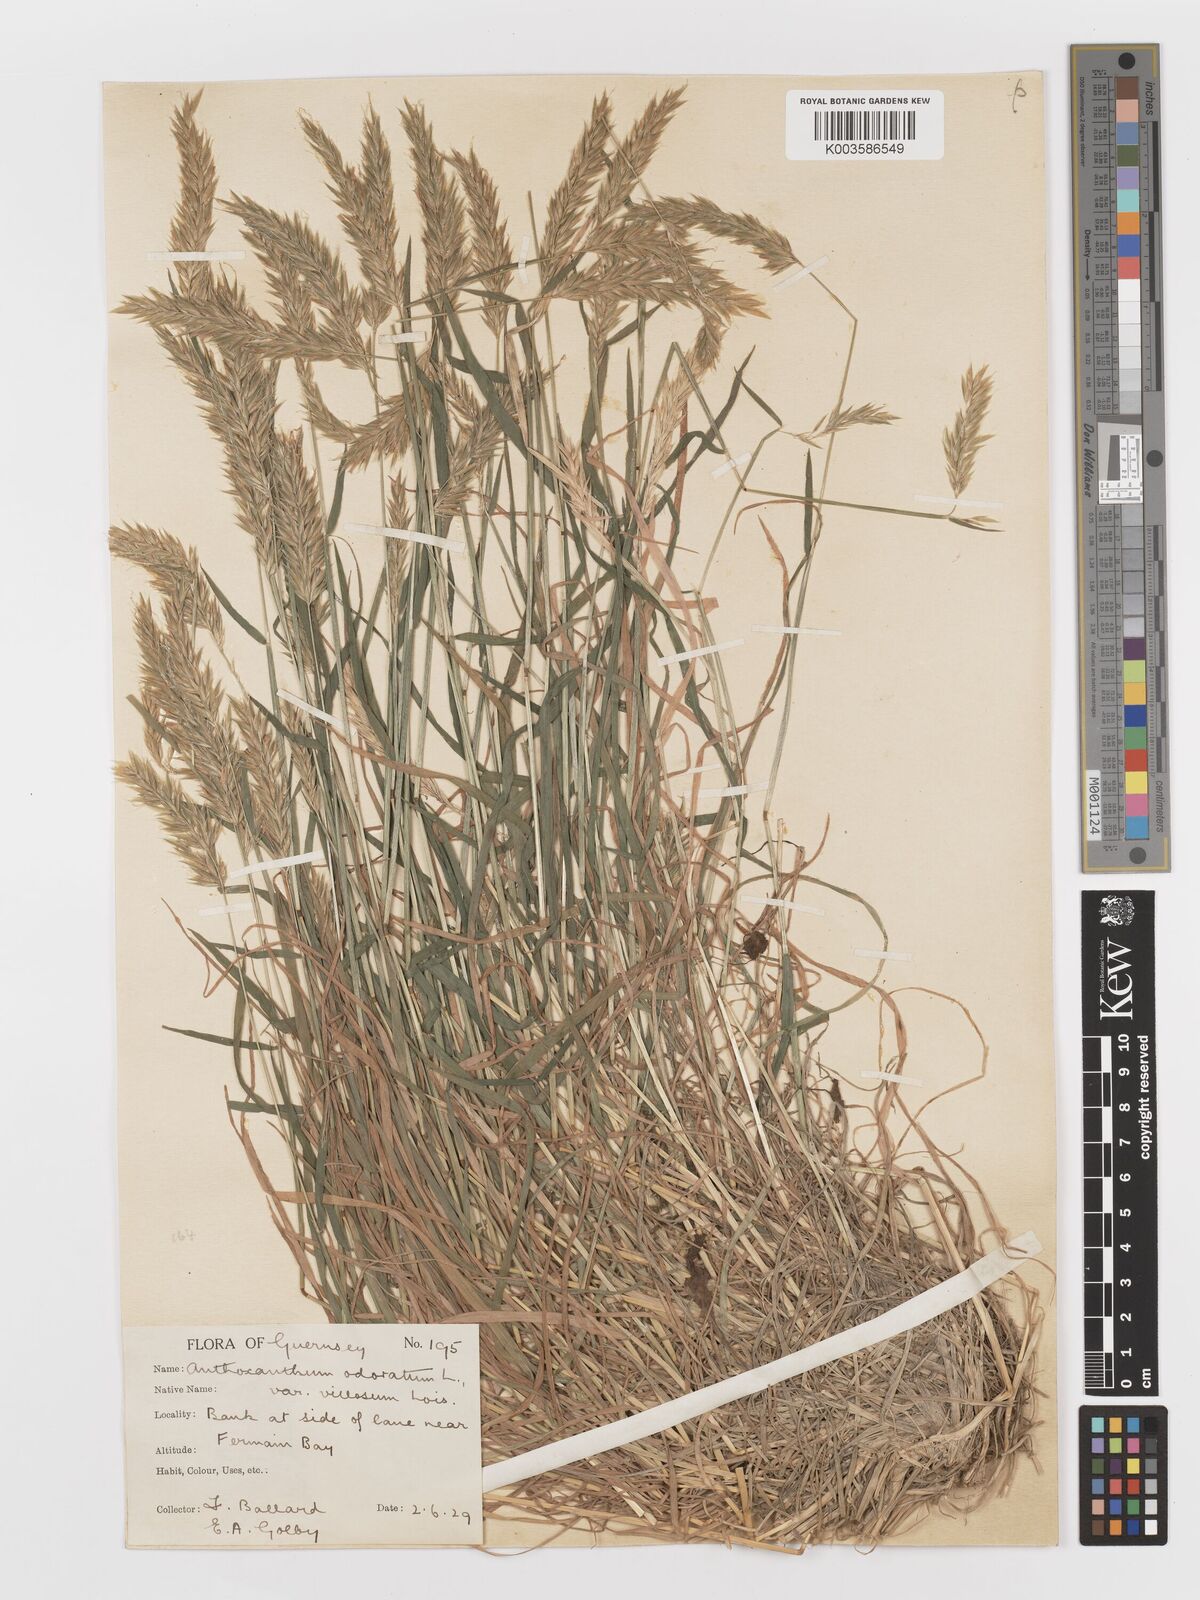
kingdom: Plantae
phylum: Tracheophyta
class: Liliopsida
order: Poales
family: Poaceae
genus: Anthoxanthum
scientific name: Anthoxanthum odoratum
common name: Sweet vernalgrass
